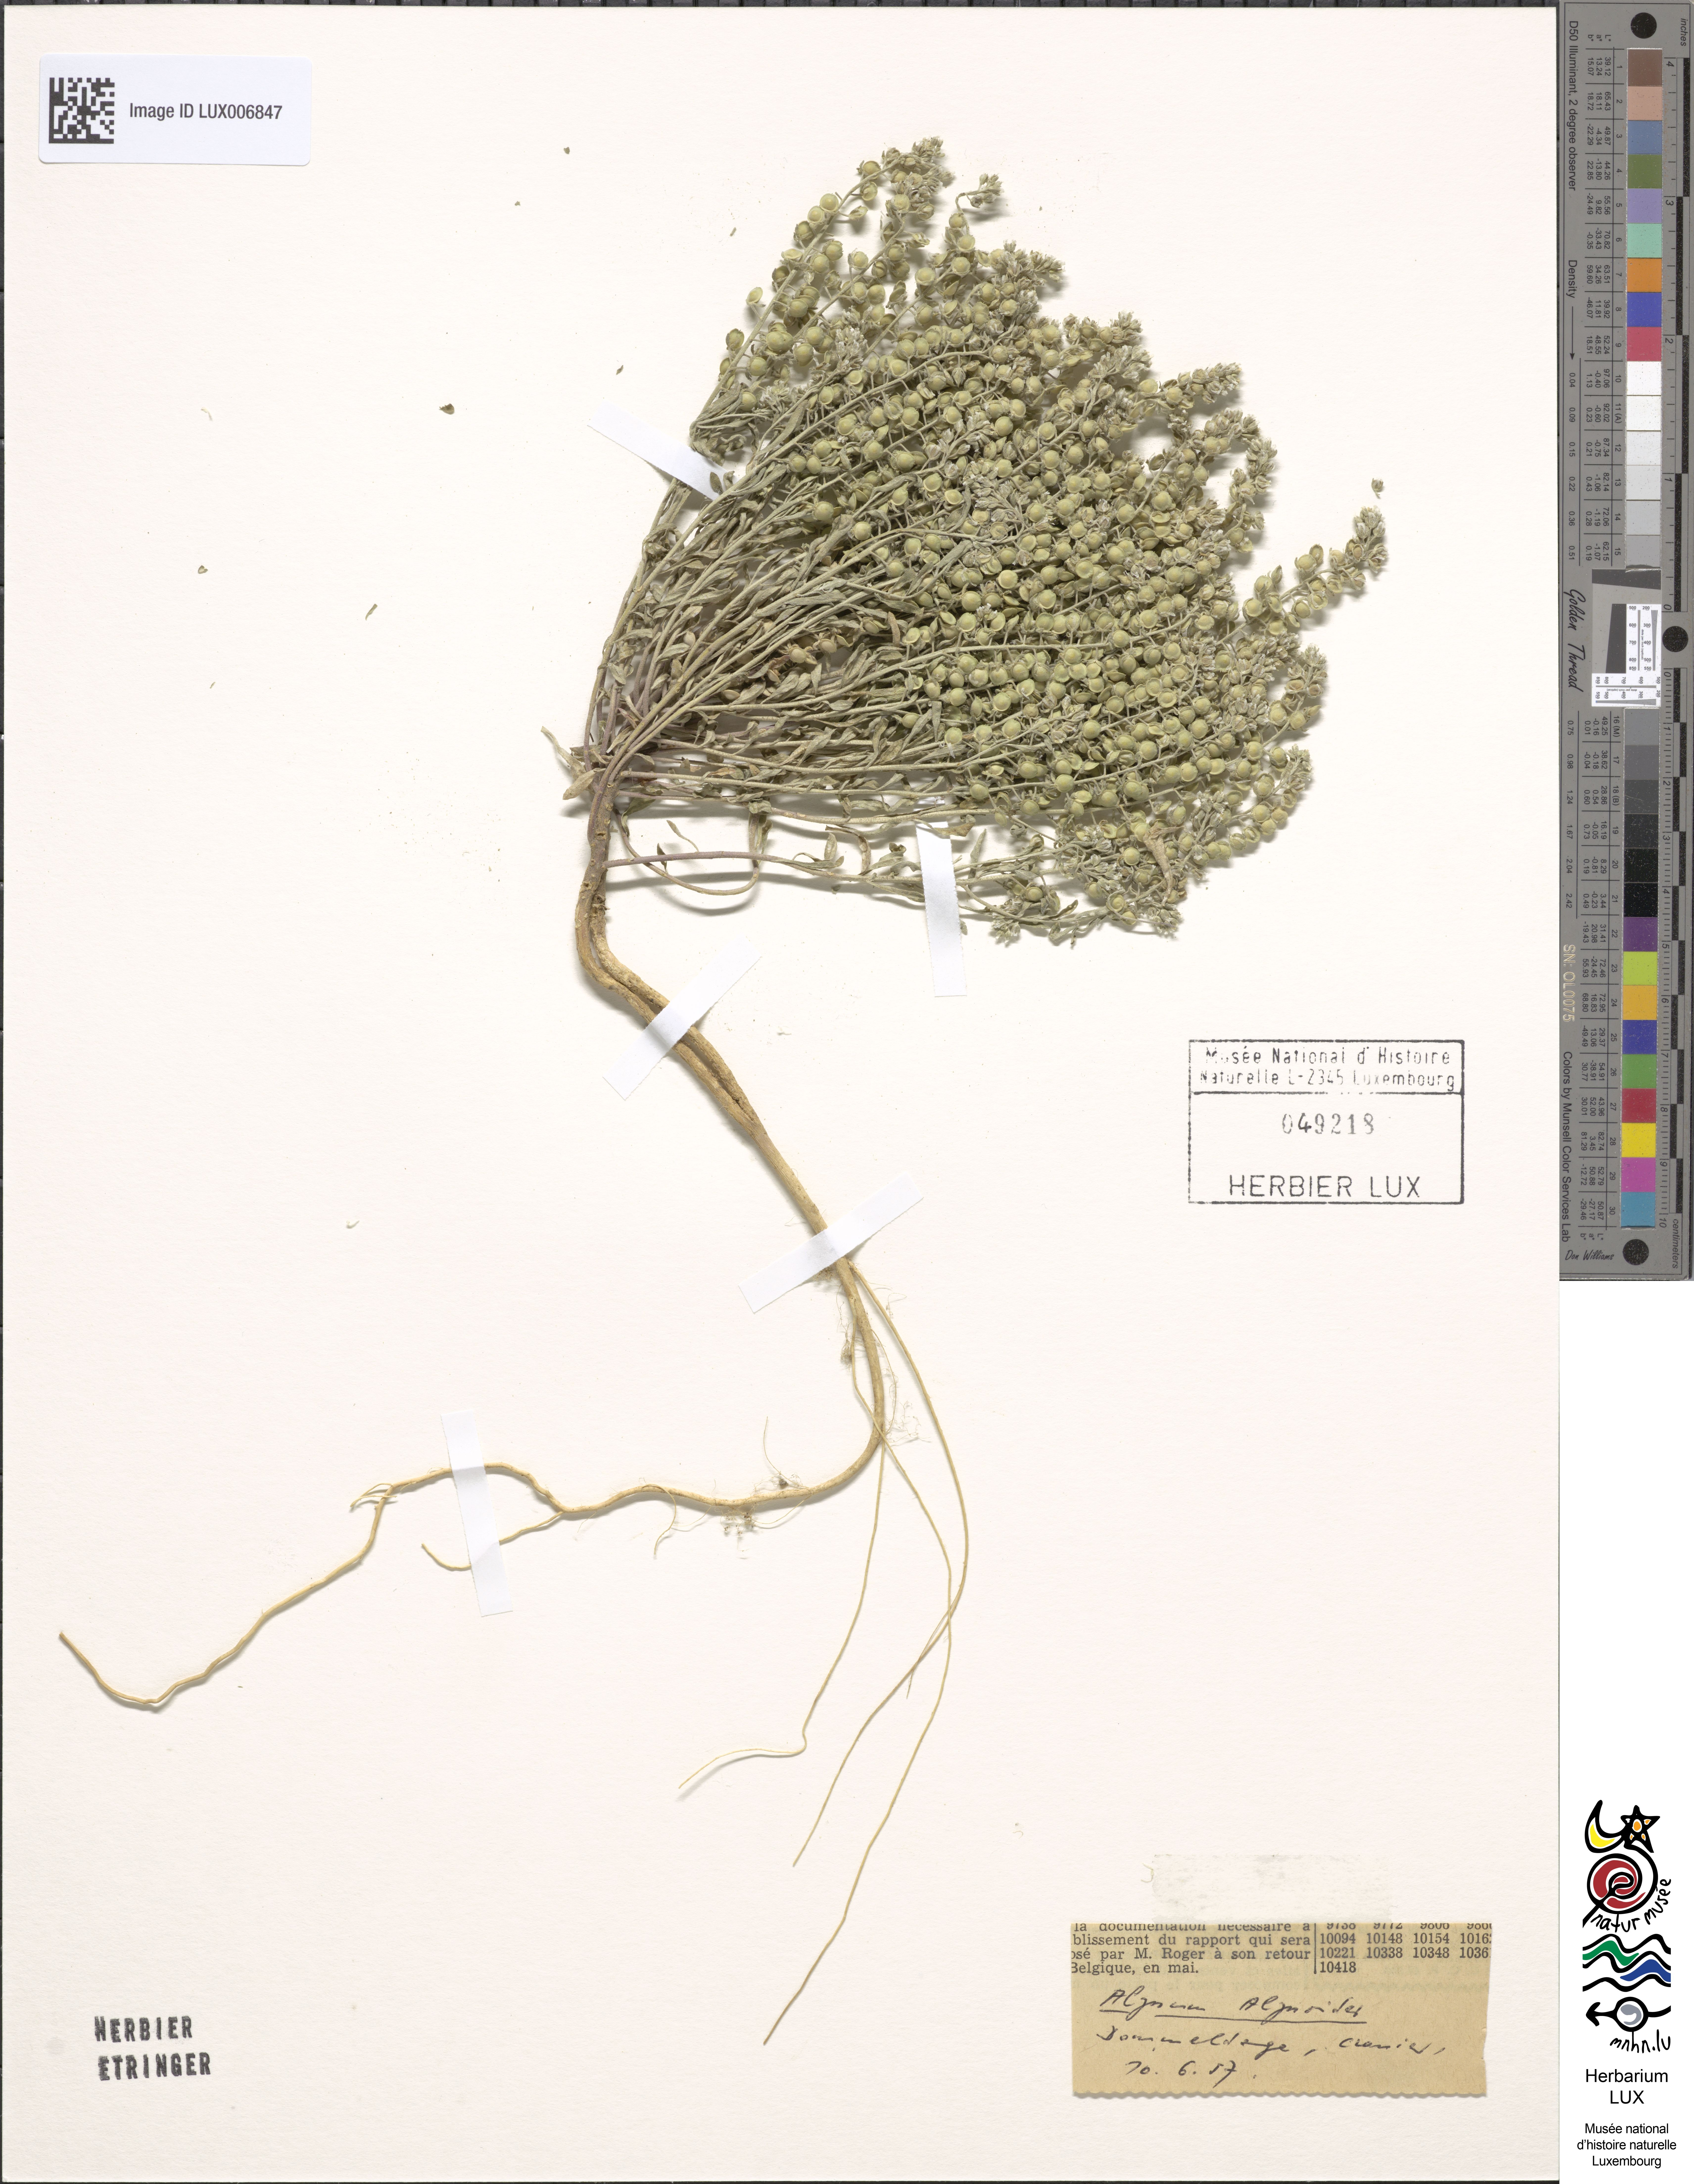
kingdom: Plantae
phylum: Tracheophyta
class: Magnoliopsida
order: Brassicales
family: Brassicaceae
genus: Alyssum
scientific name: Alyssum alyssoides
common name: Small alison
